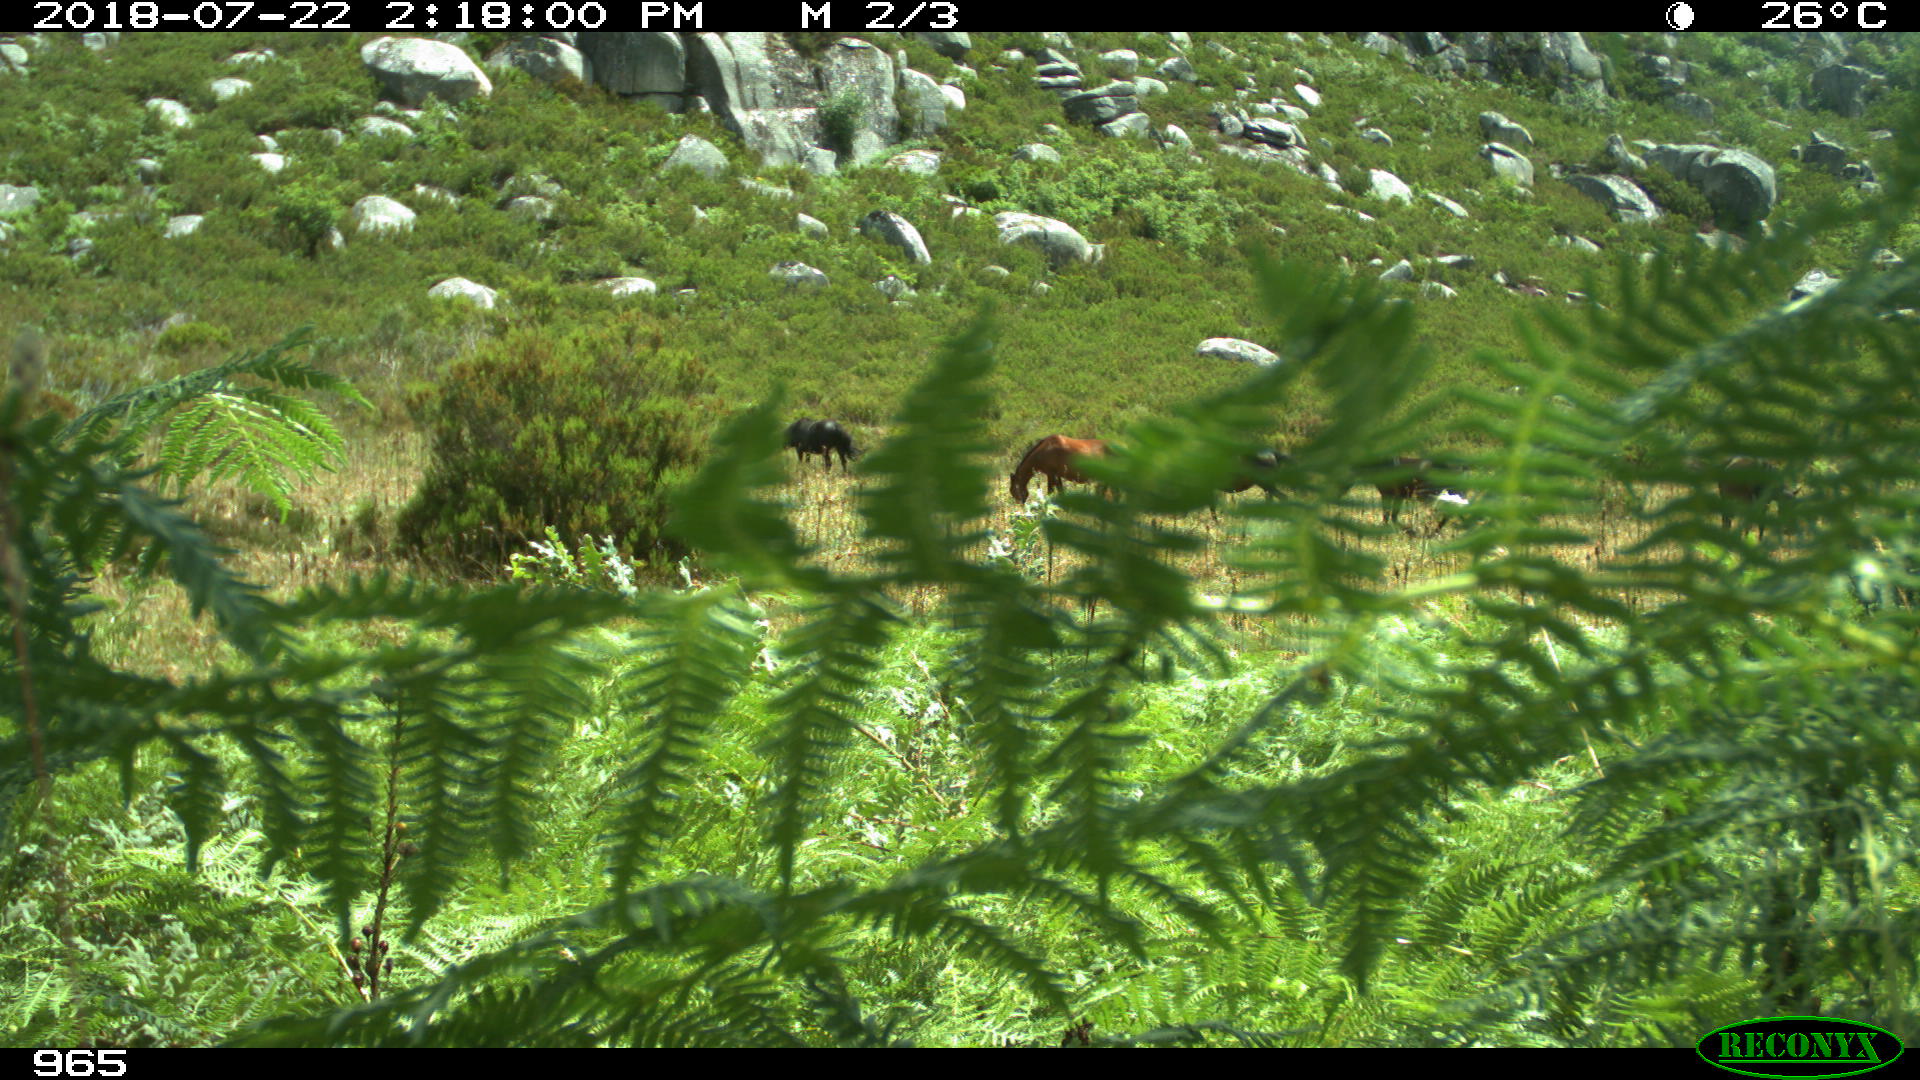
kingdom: Animalia
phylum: Chordata
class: Mammalia
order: Perissodactyla
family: Equidae
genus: Equus
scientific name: Equus caballus
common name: Horse
